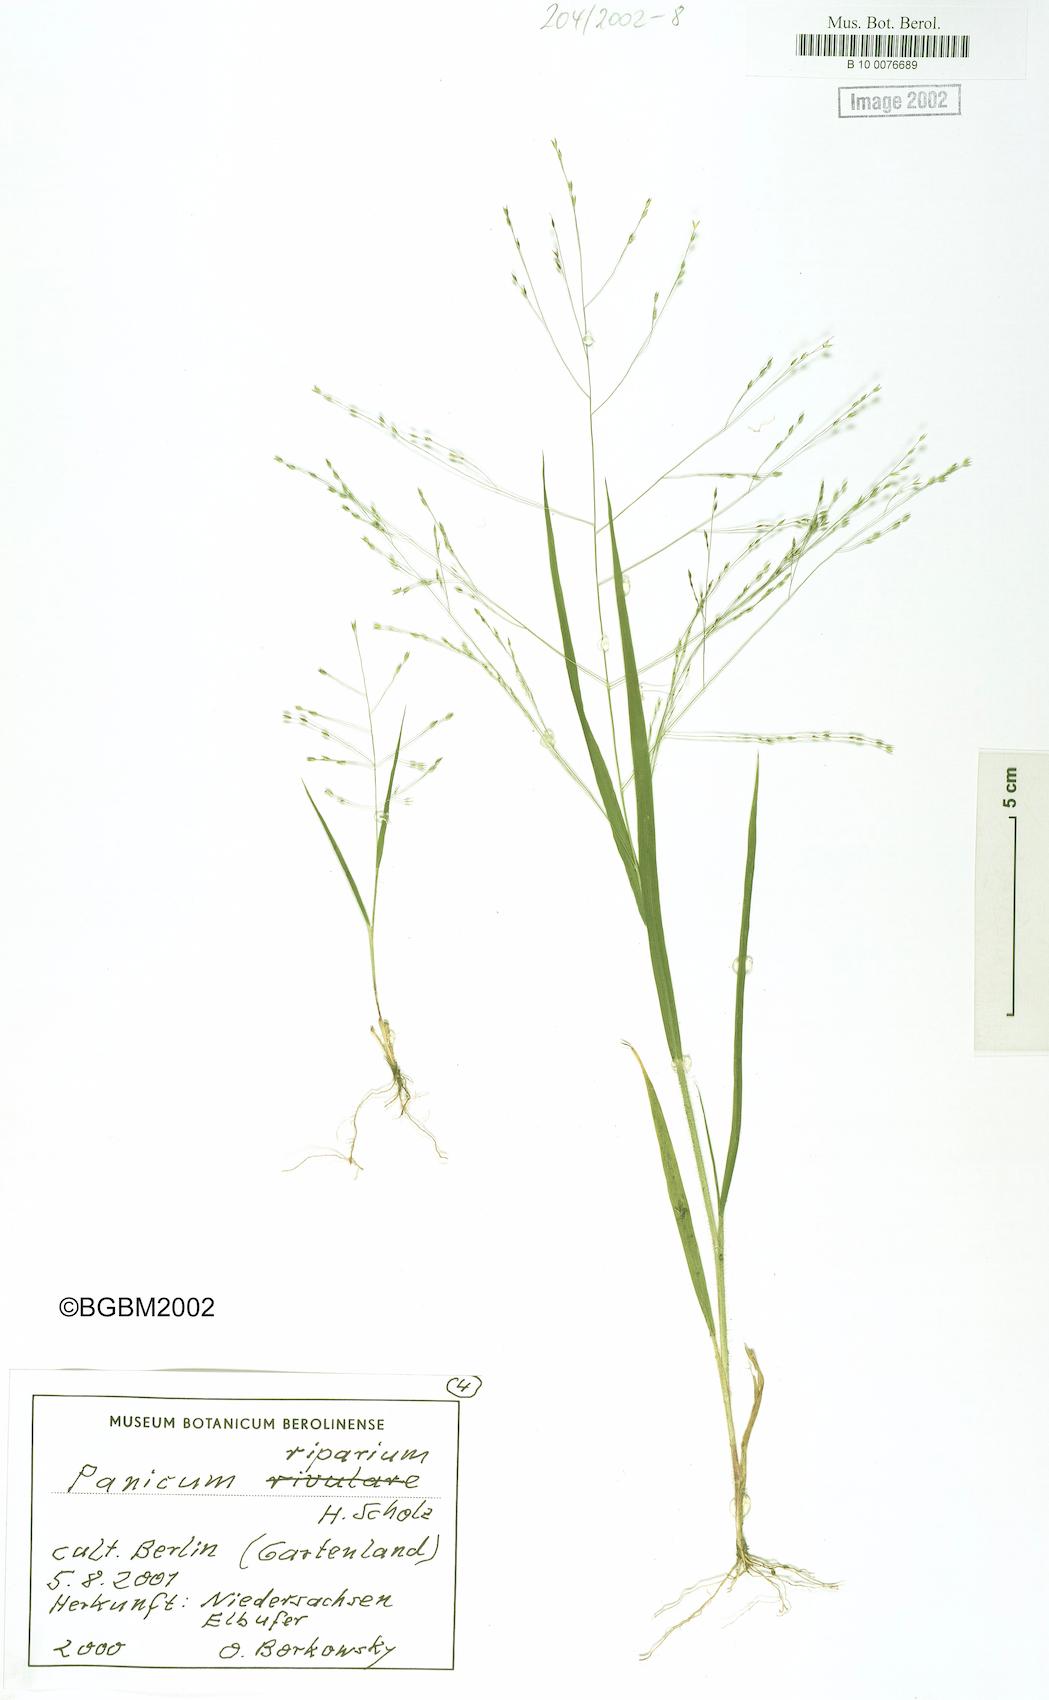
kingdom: Plantae
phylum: Tracheophyta
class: Liliopsida
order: Poales
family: Poaceae
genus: Panicum
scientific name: Panicum capillare
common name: Witch-grass
